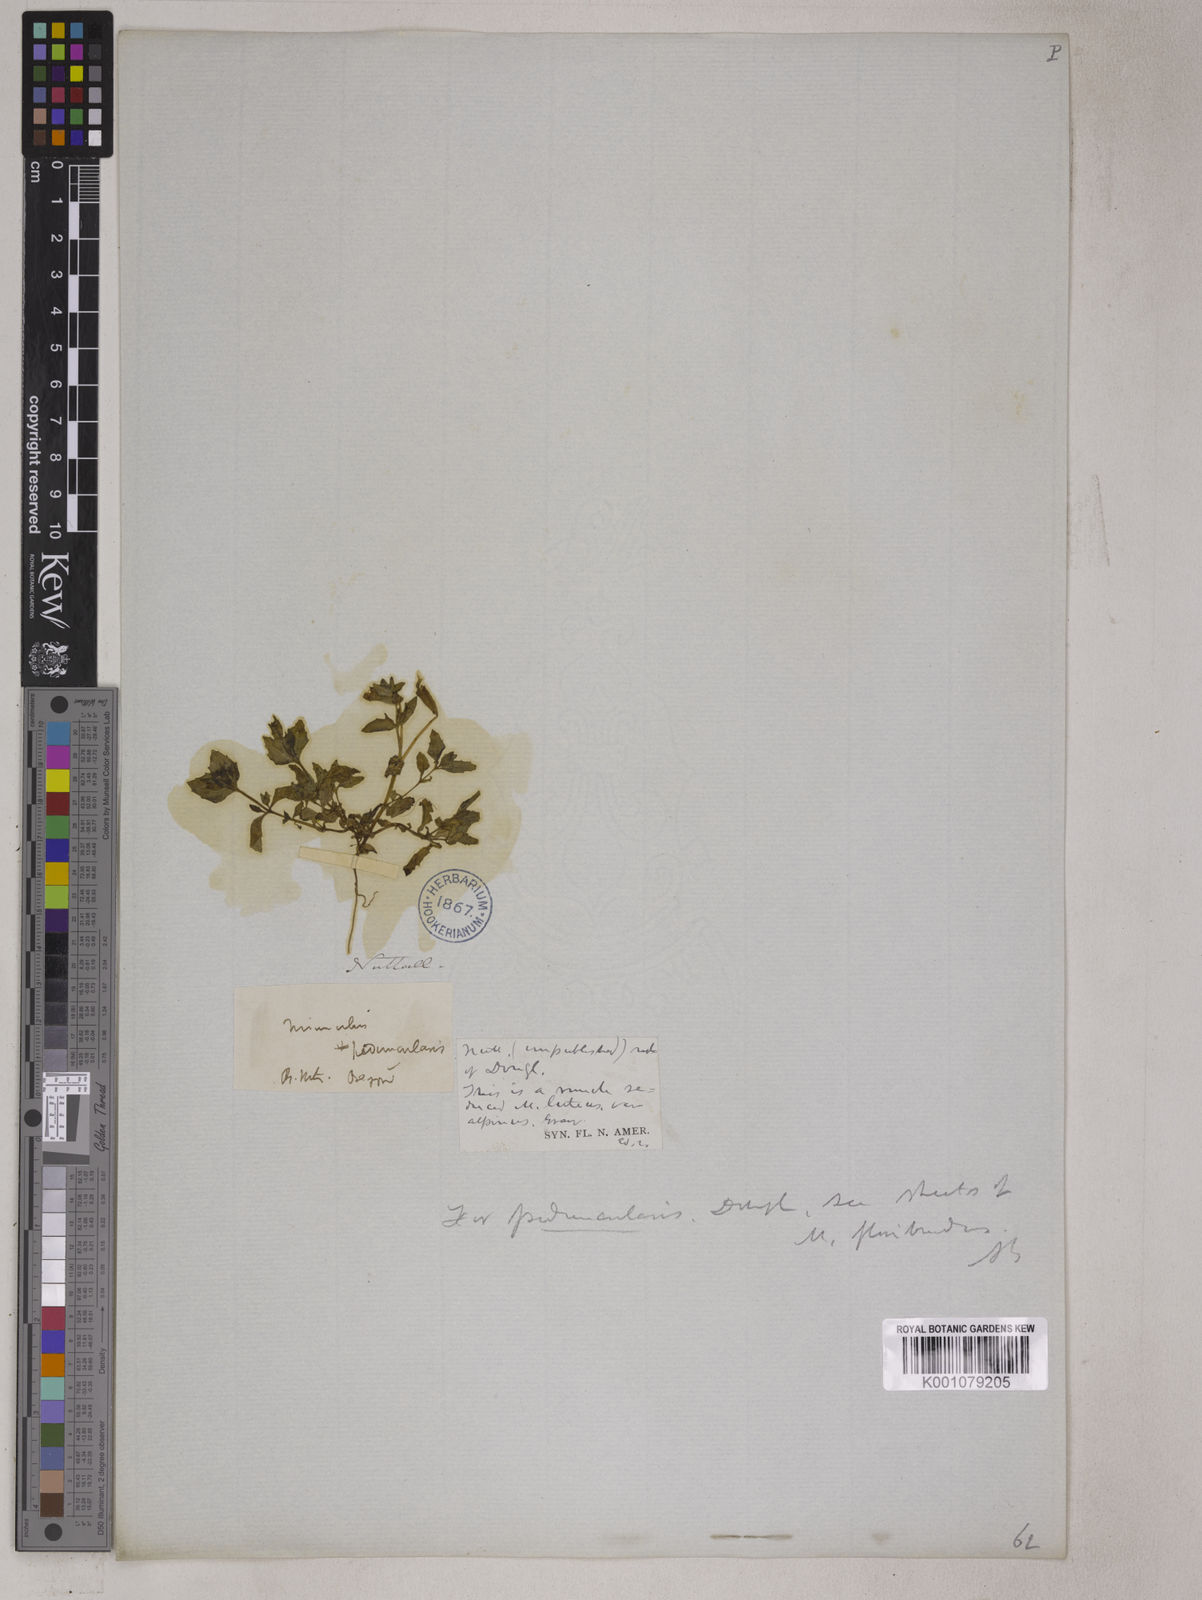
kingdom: Plantae
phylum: Tracheophyta
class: Magnoliopsida
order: Lamiales
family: Phrymaceae
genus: Erythranthe
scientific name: Erythranthe floribunda
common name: Floriferous monkeyflower
